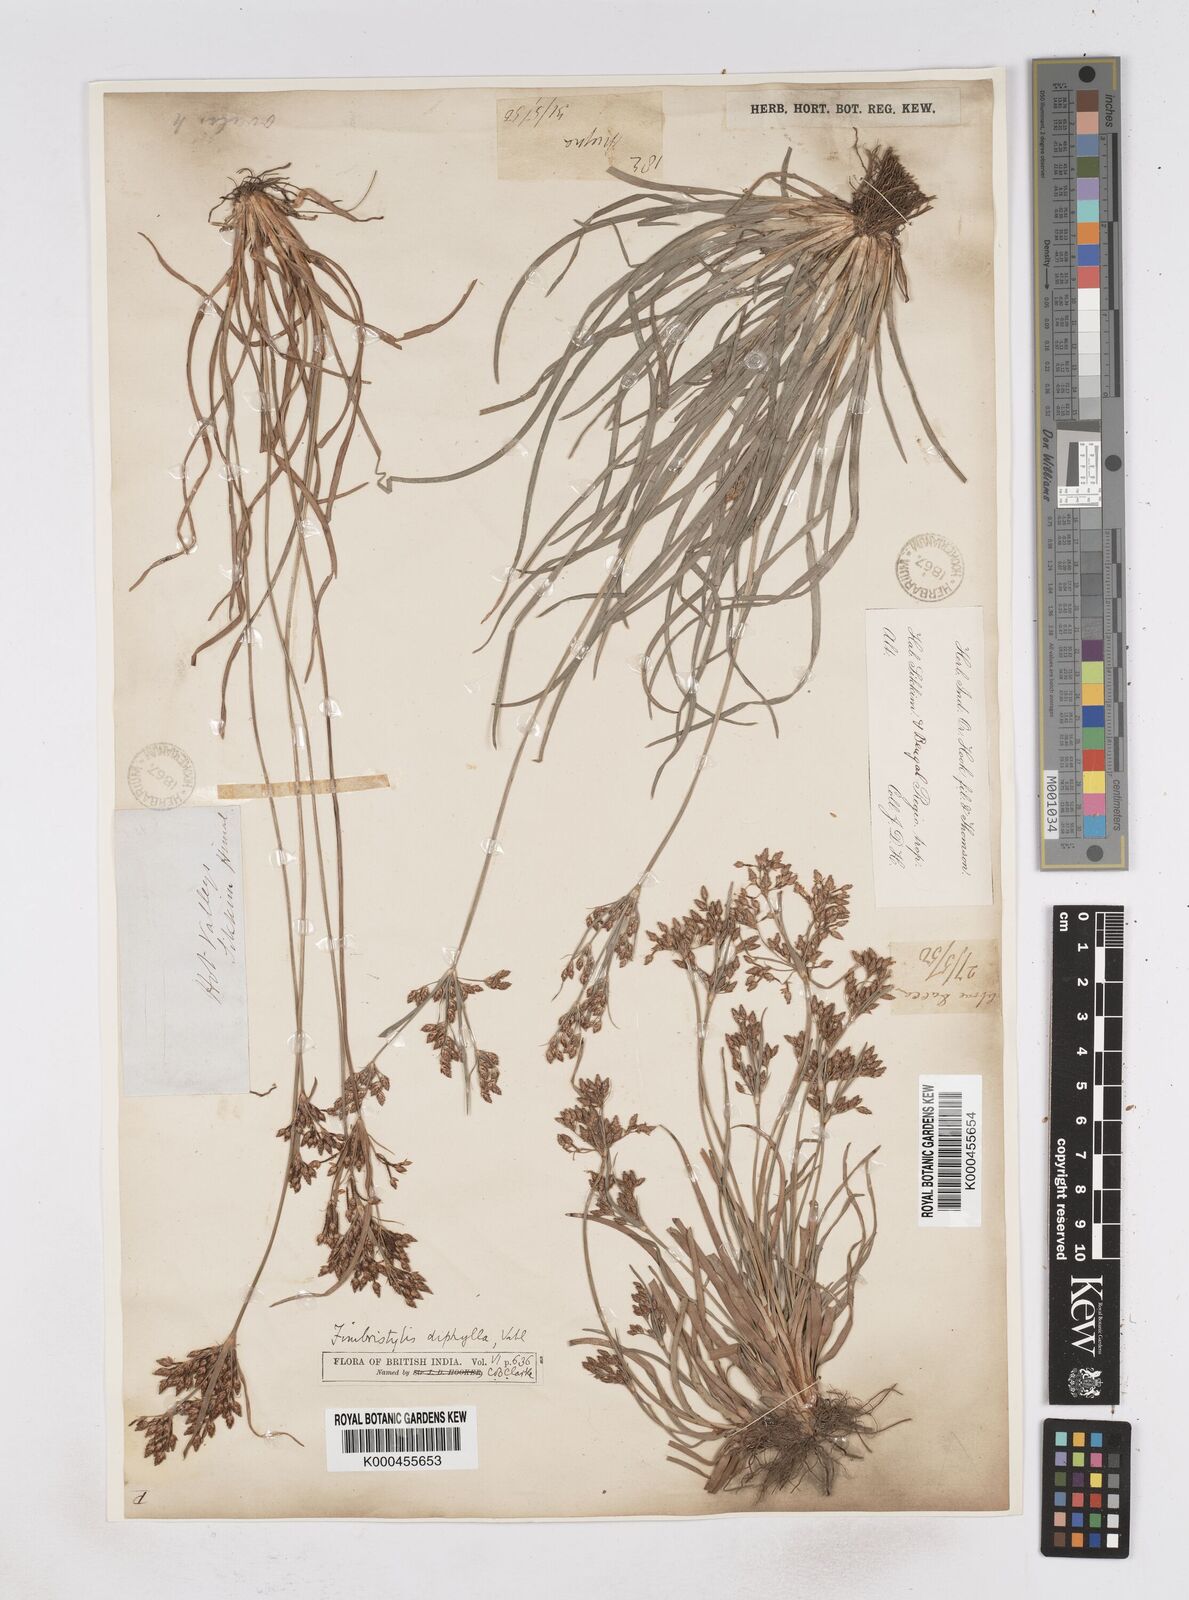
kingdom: Plantae
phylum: Tracheophyta
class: Liliopsida
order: Poales
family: Cyperaceae
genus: Fimbristylis
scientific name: Fimbristylis dichotoma
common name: Forked fimbry
